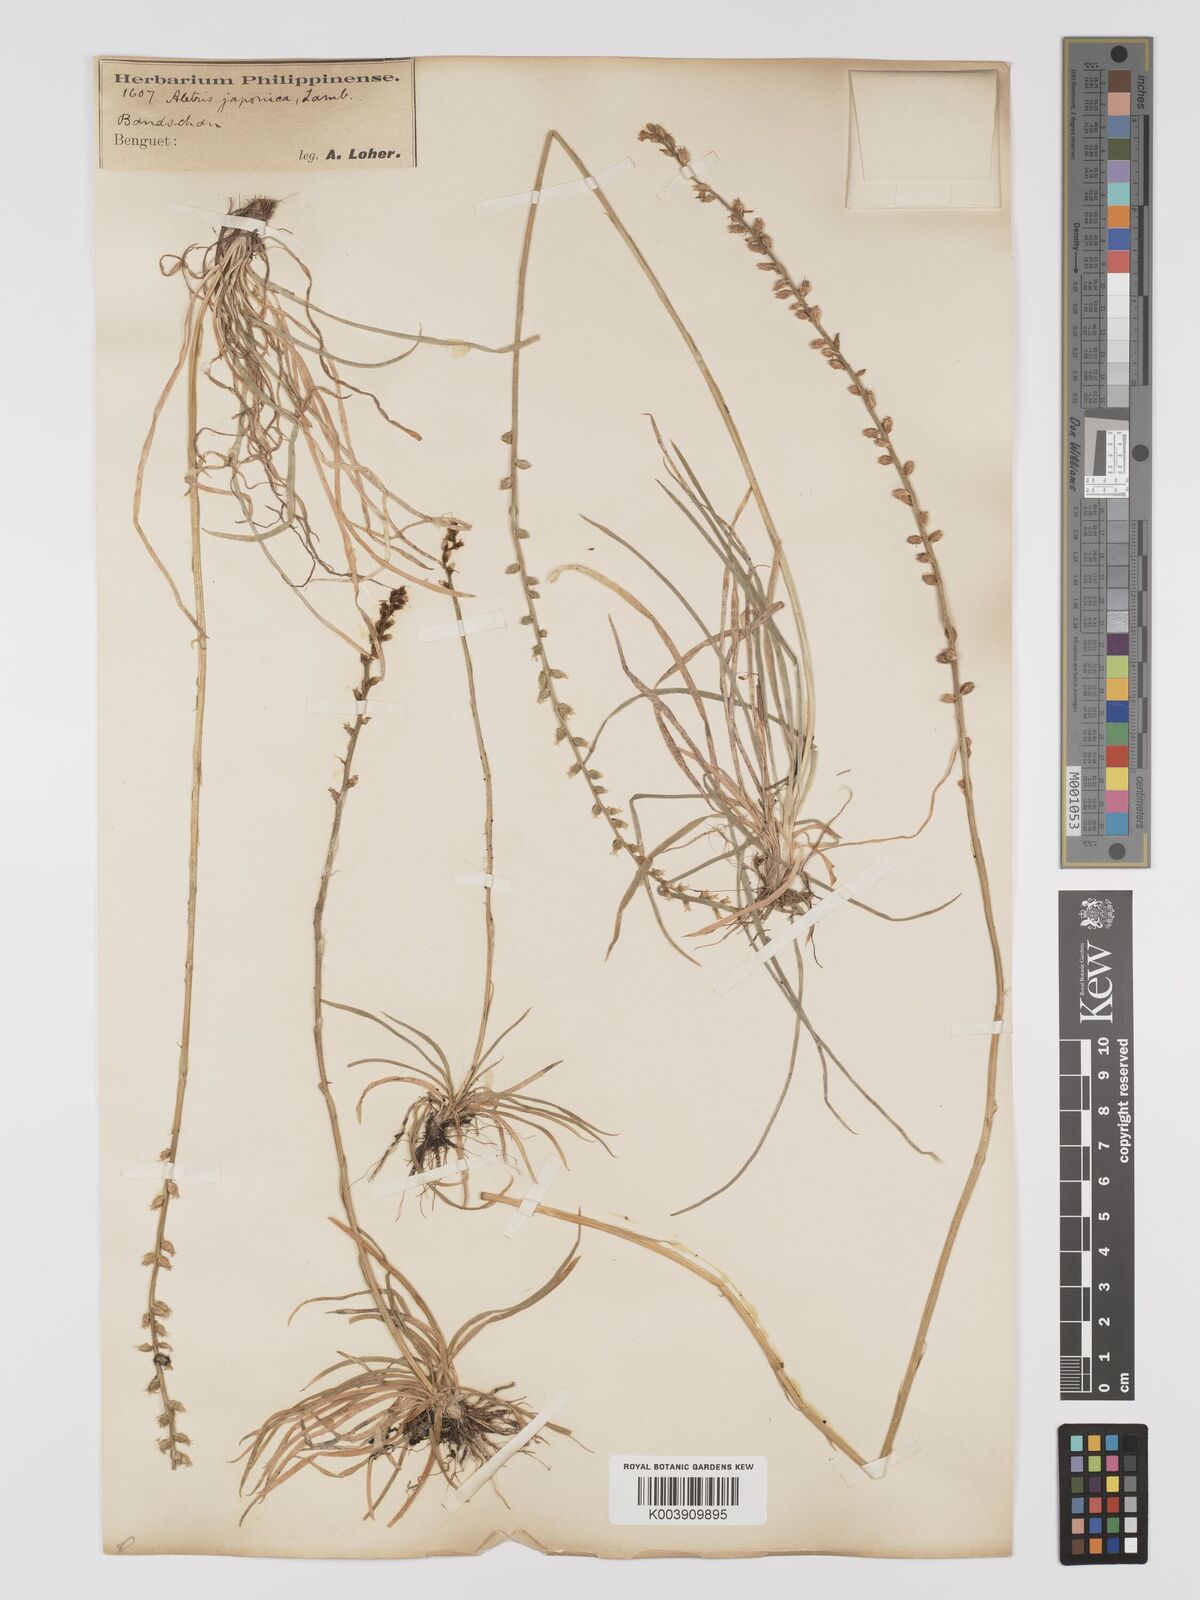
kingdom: Plantae
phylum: Tracheophyta
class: Liliopsida
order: Dioscoreales
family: Nartheciaceae
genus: Aletris
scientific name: Aletris spicata
